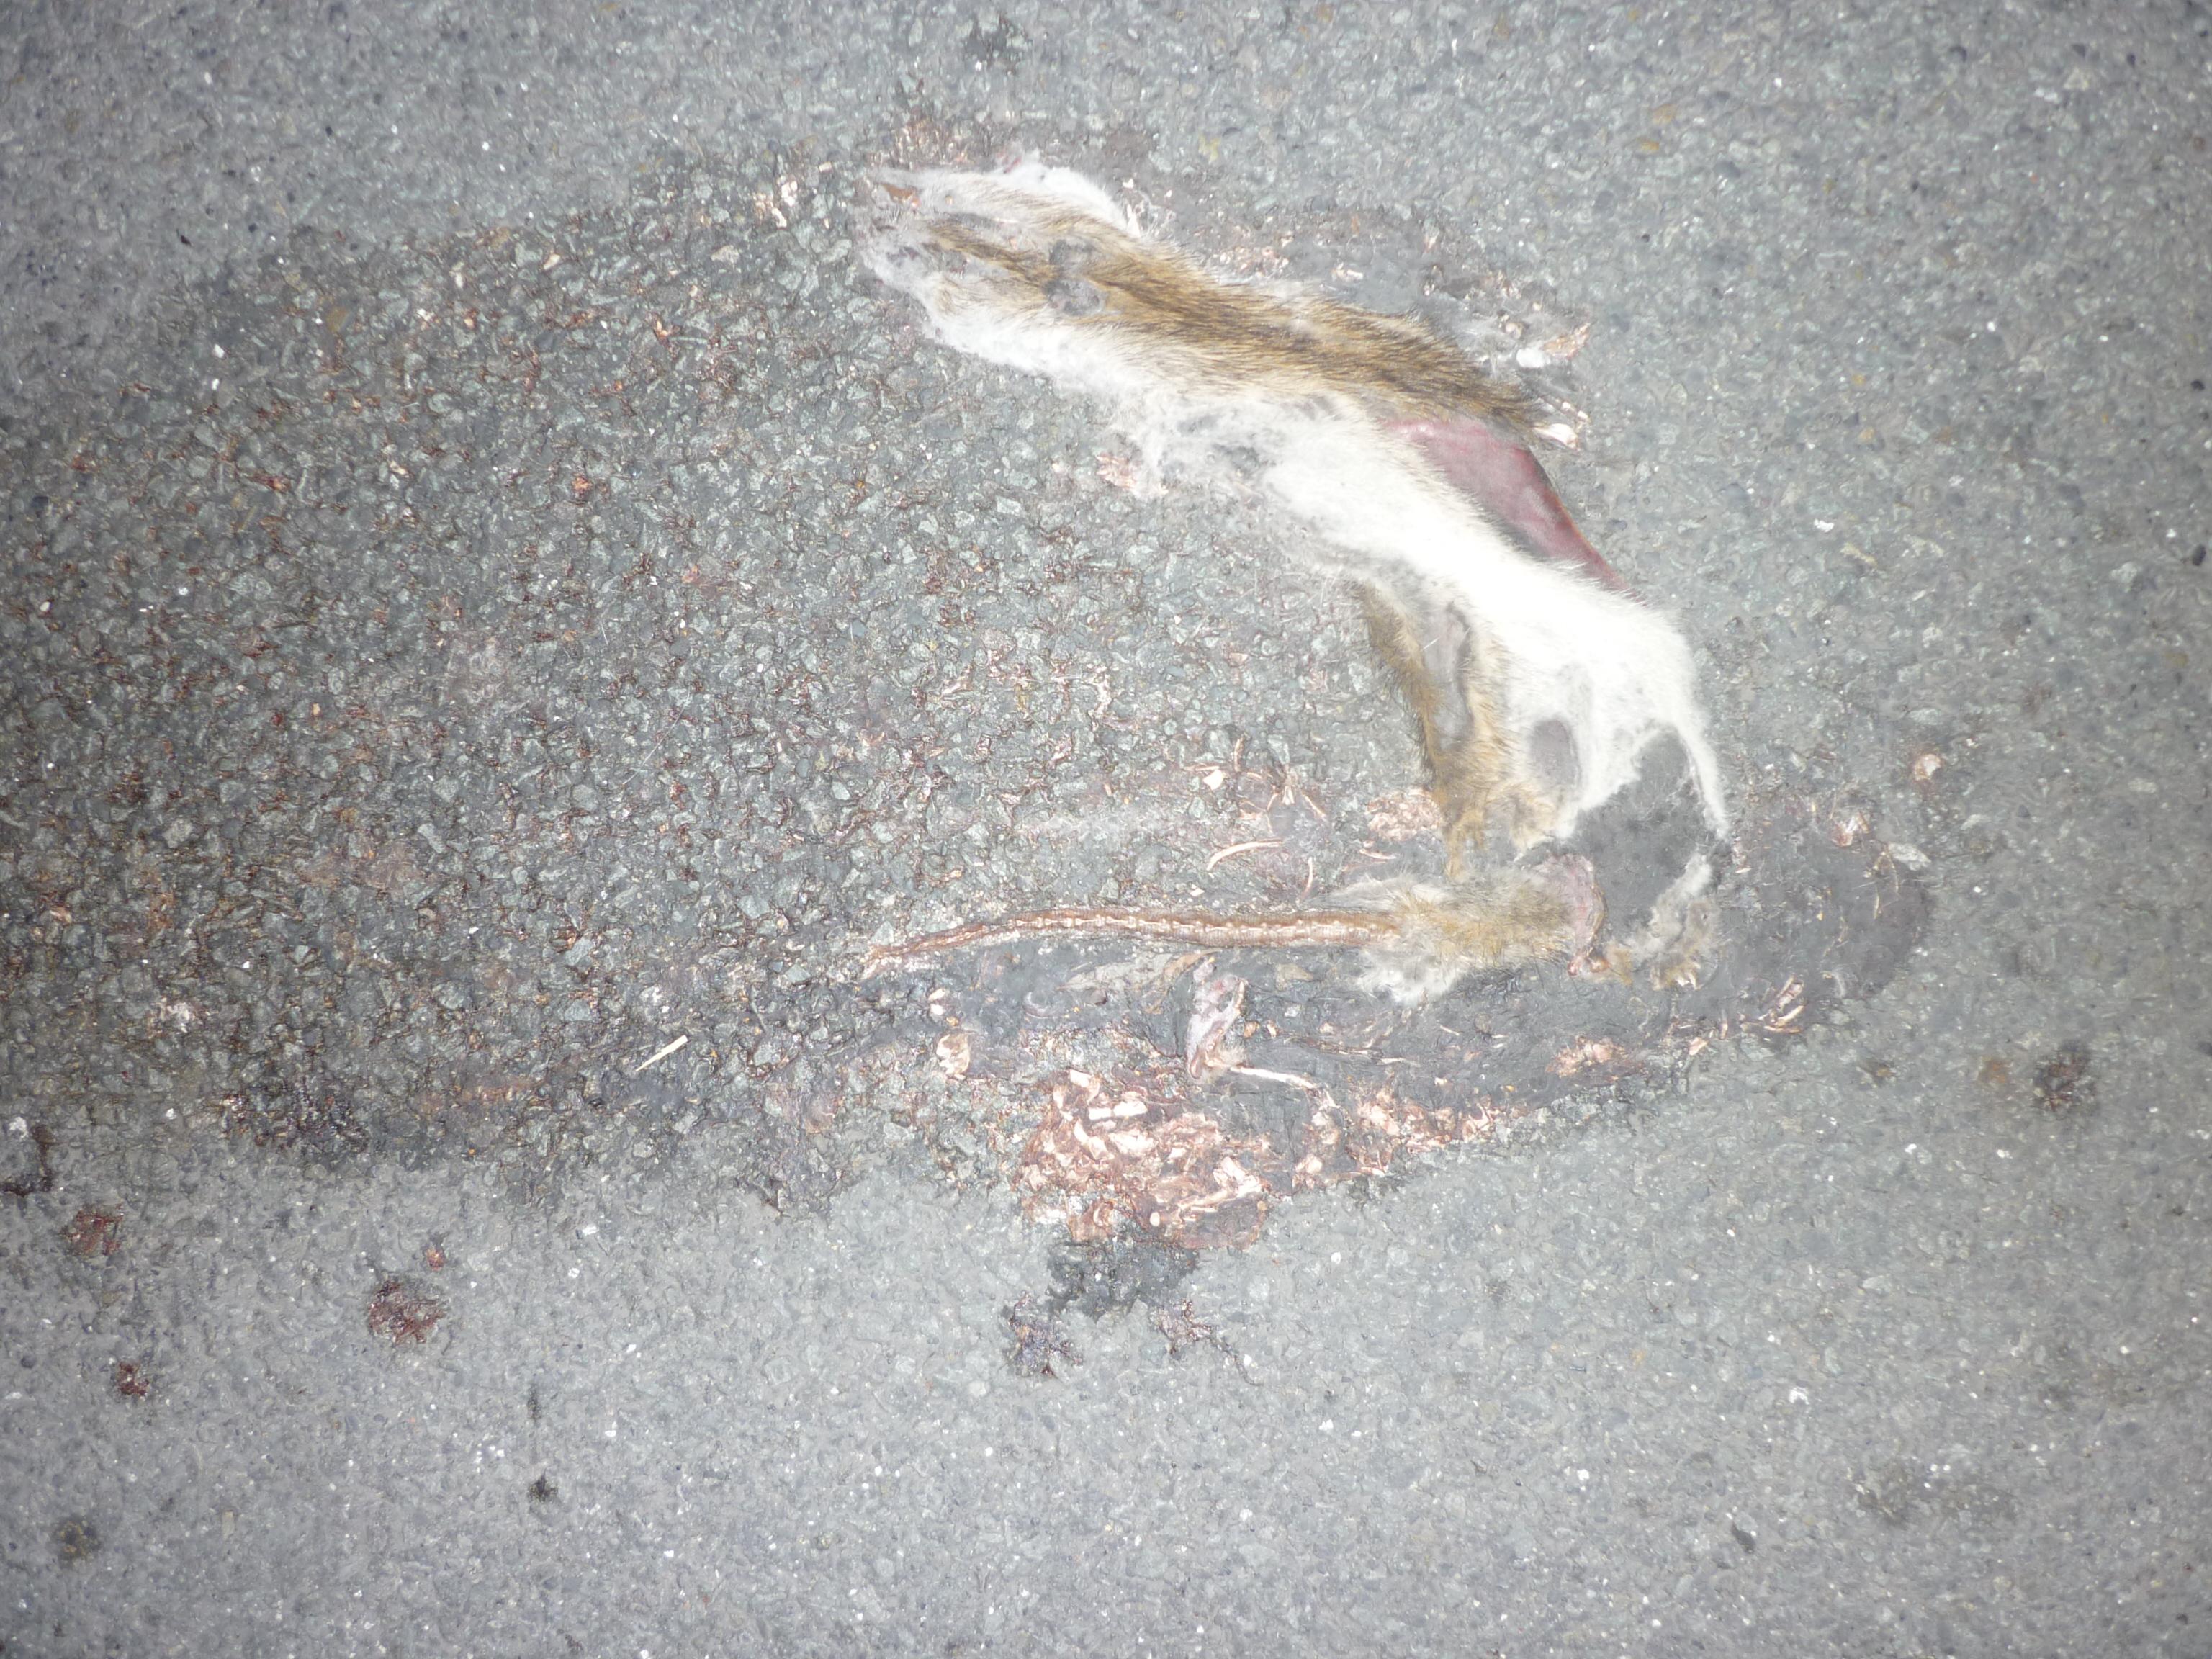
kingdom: Animalia
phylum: Chordata
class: Mammalia
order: Rodentia
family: Muridae
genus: Rattus
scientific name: Rattus norvegicus
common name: Brown rat
